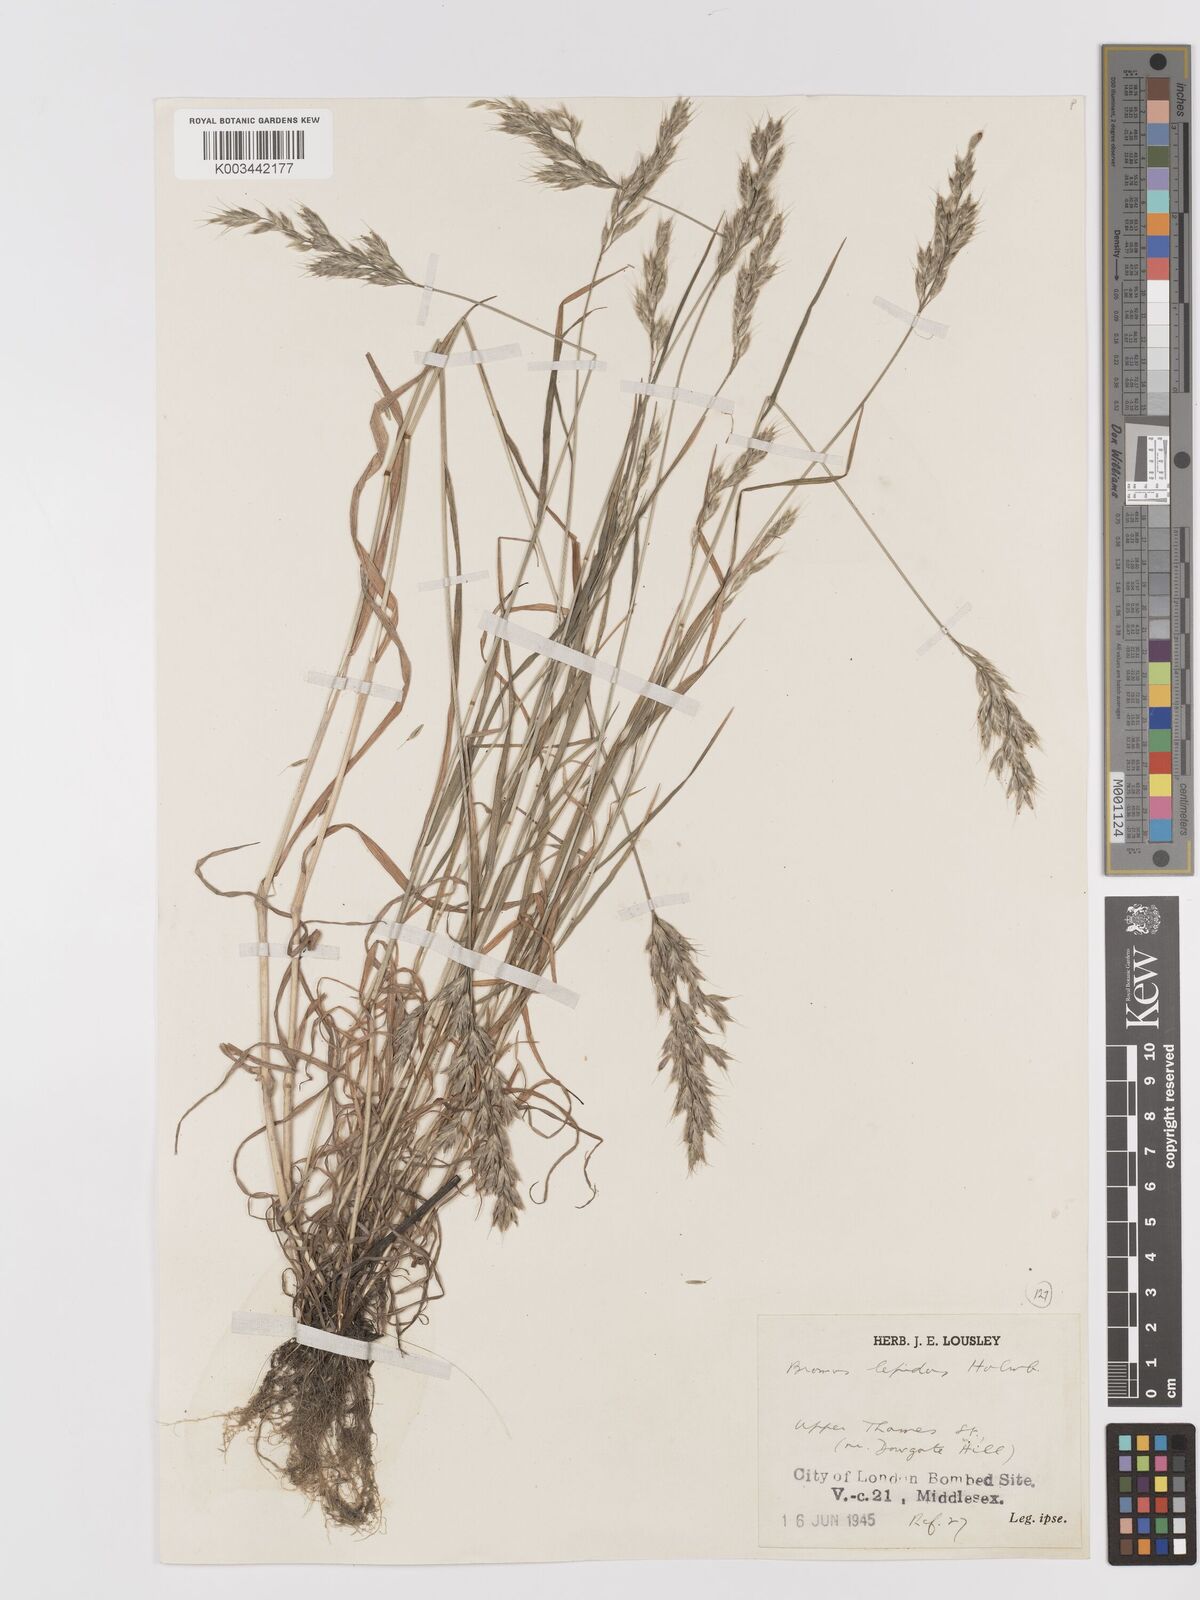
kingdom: Plantae
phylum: Tracheophyta
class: Liliopsida
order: Poales
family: Poaceae
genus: Bromus
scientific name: Bromus lepidus
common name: Slender soft-brome
